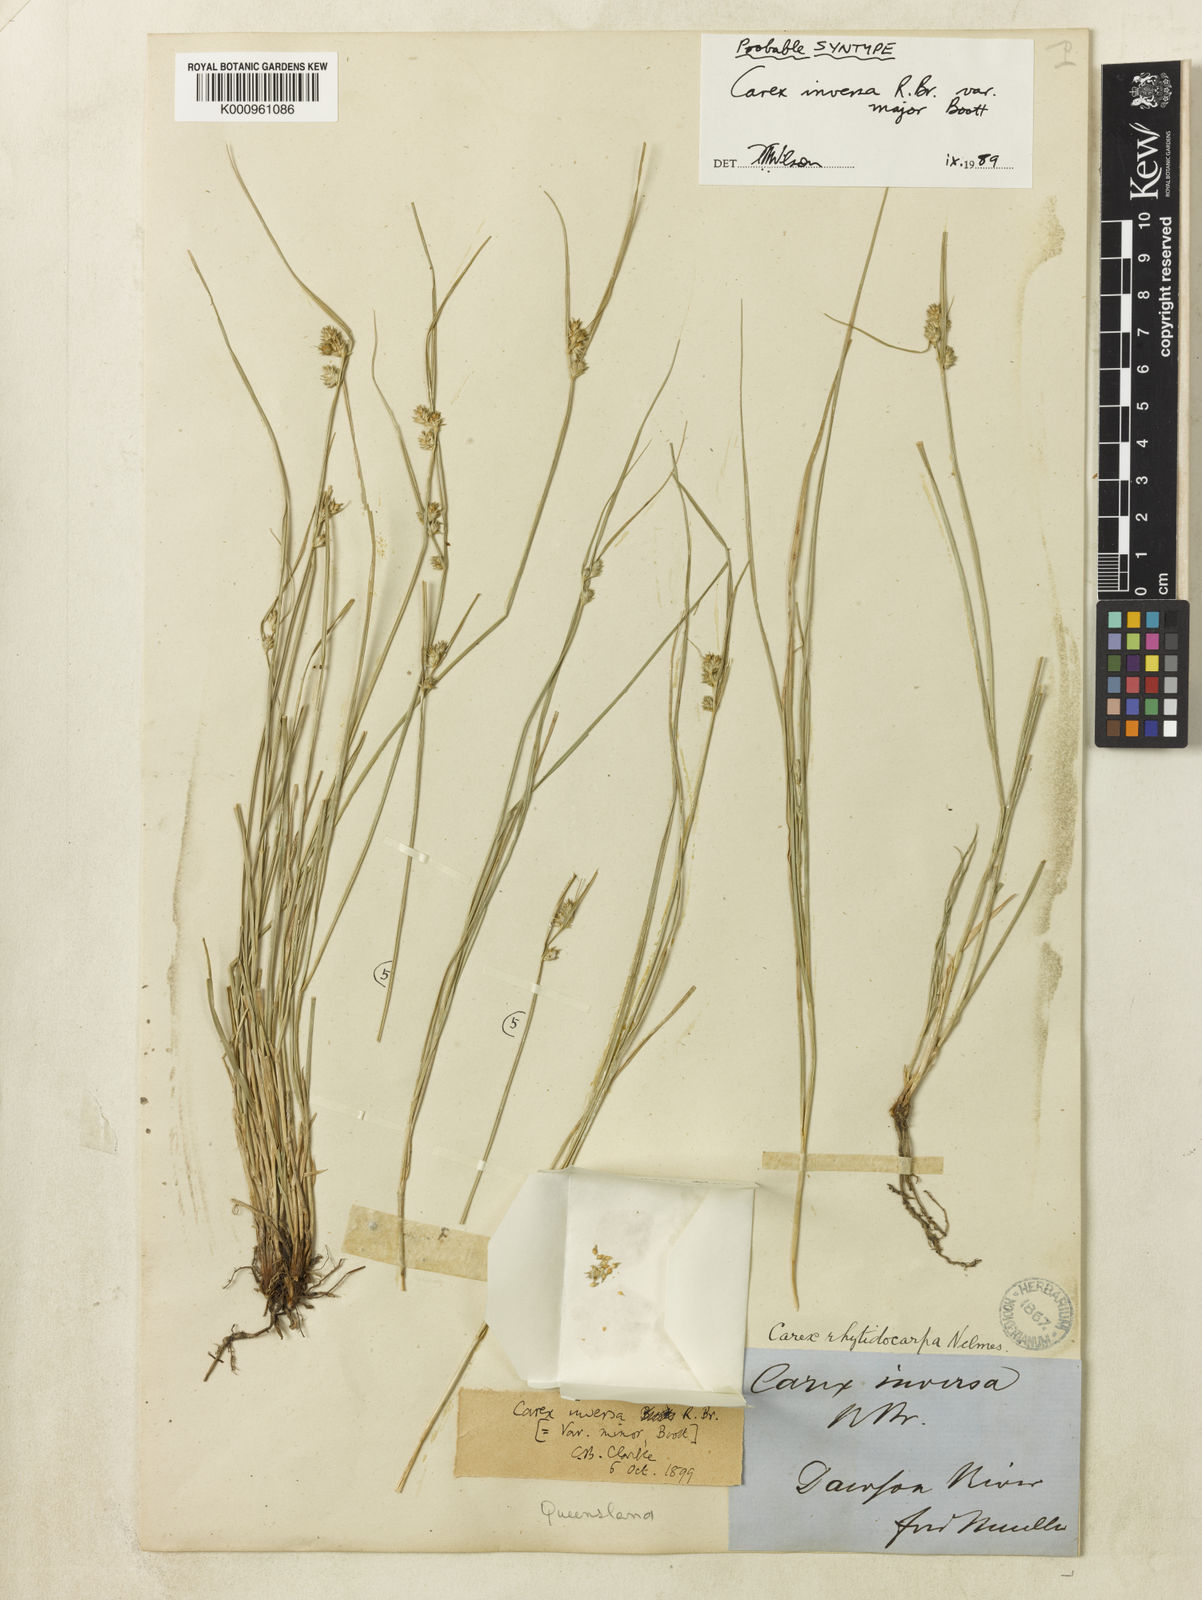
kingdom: Plantae
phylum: Tracheophyta
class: Liliopsida
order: Poales
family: Cyperaceae
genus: Carex
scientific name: Carex inversa
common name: Knob sedge
